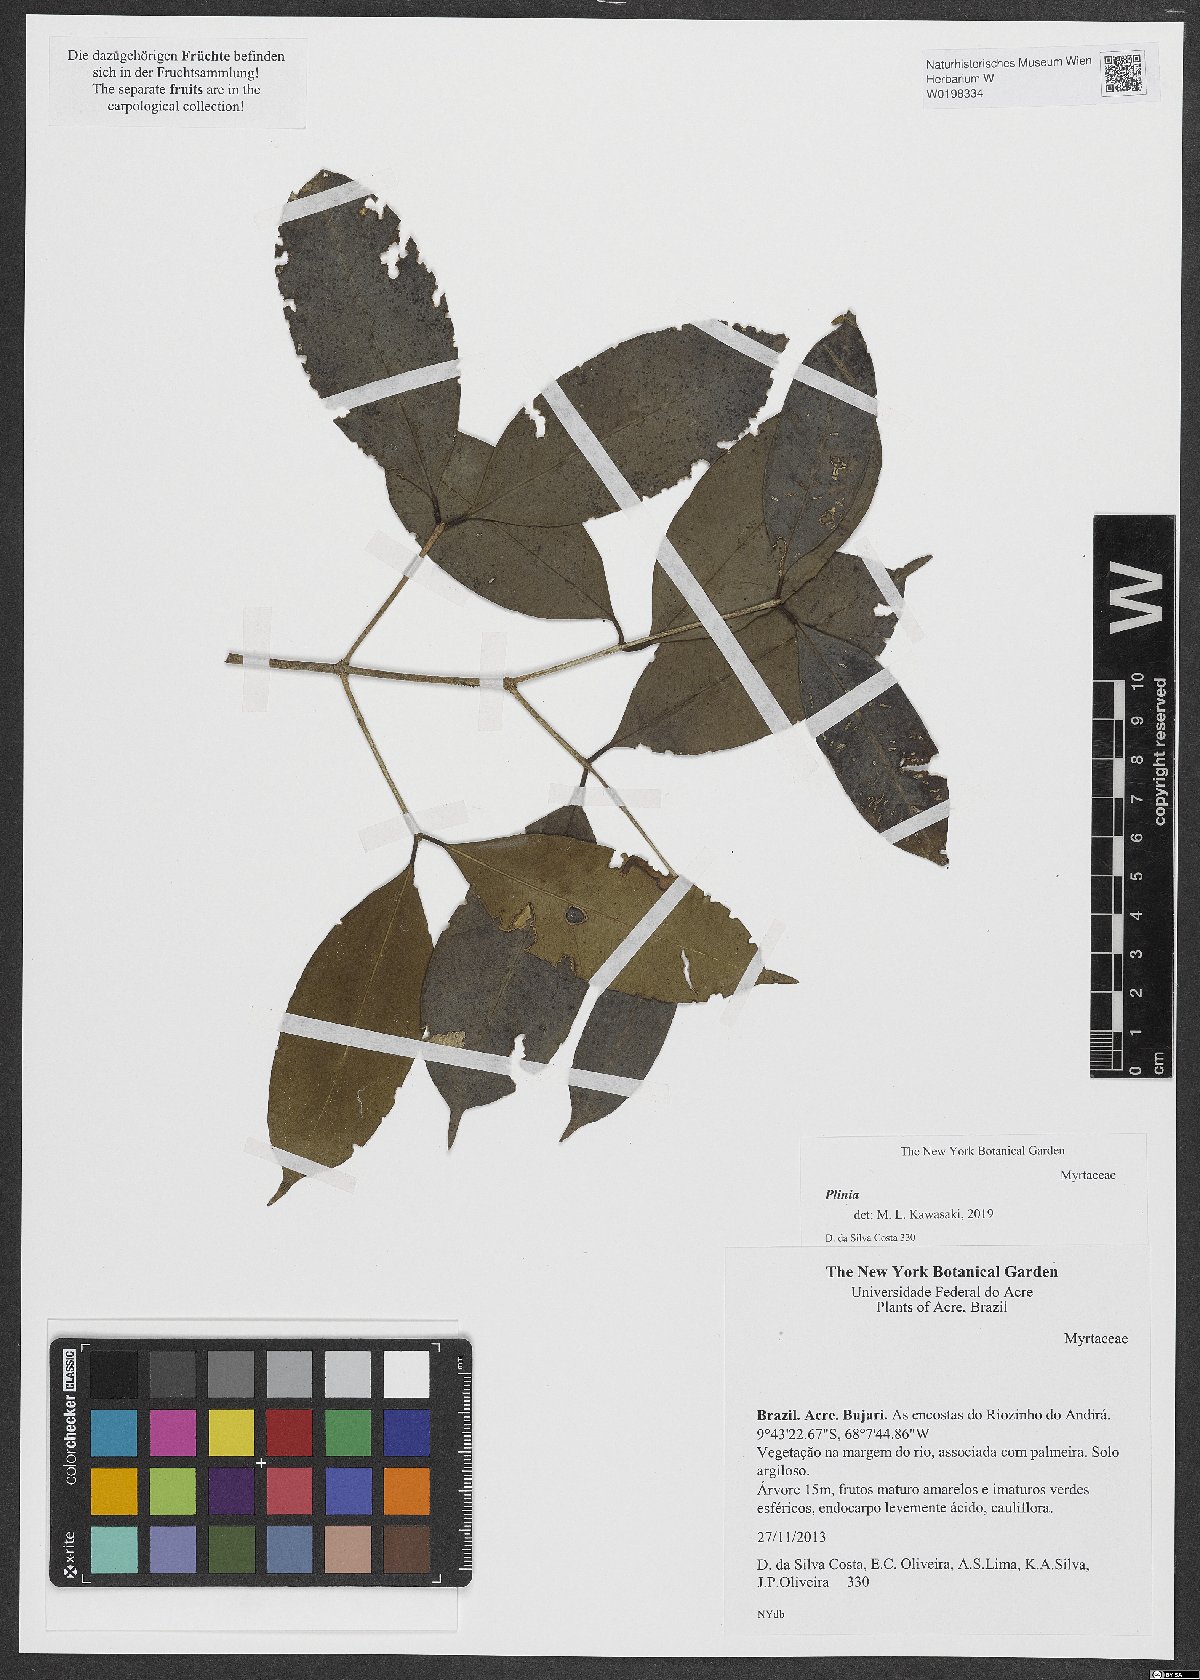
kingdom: Plantae
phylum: Tracheophyta
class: Magnoliopsida
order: Myrtales
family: Myrtaceae
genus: Plinia
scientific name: Plinia
